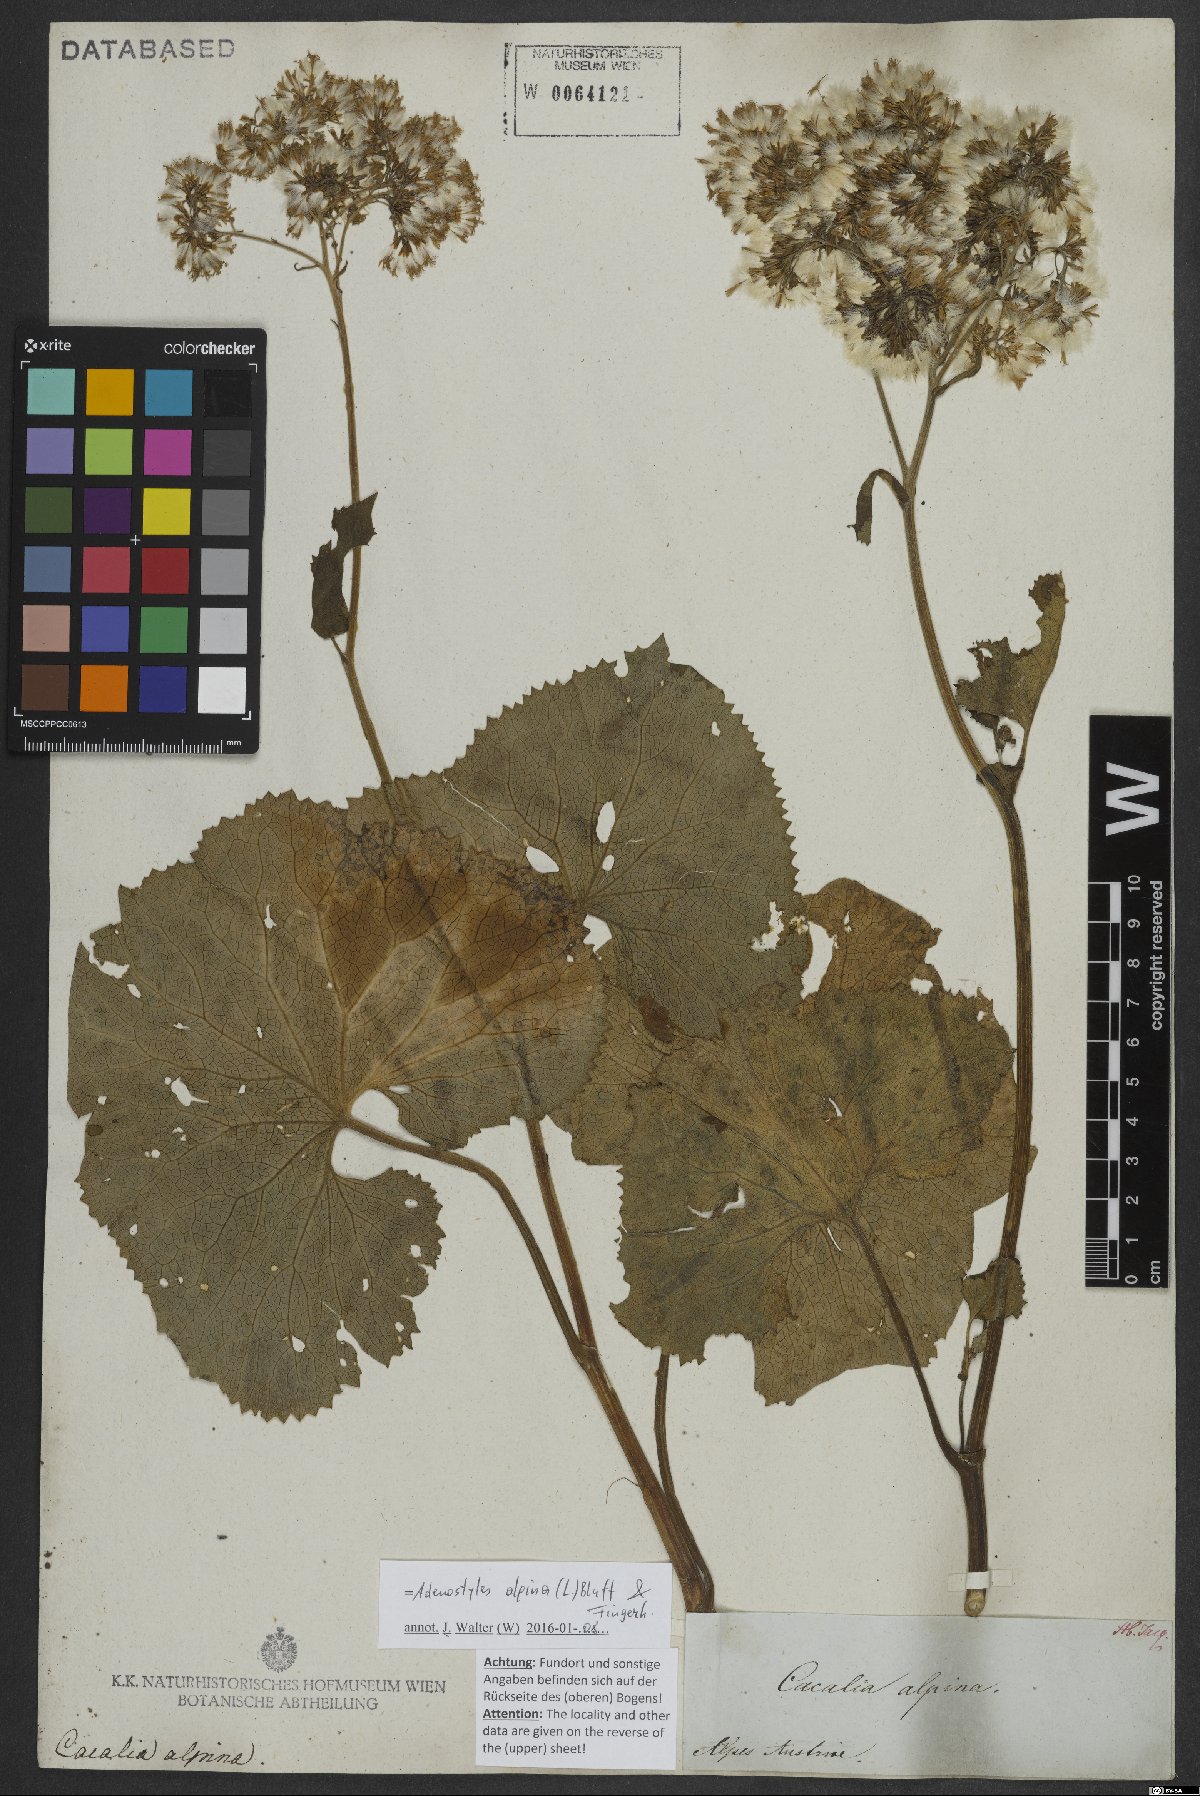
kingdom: Plantae
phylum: Tracheophyta
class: Magnoliopsida
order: Asterales
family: Asteraceae
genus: Adenostyles
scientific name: Adenostyles alpina
